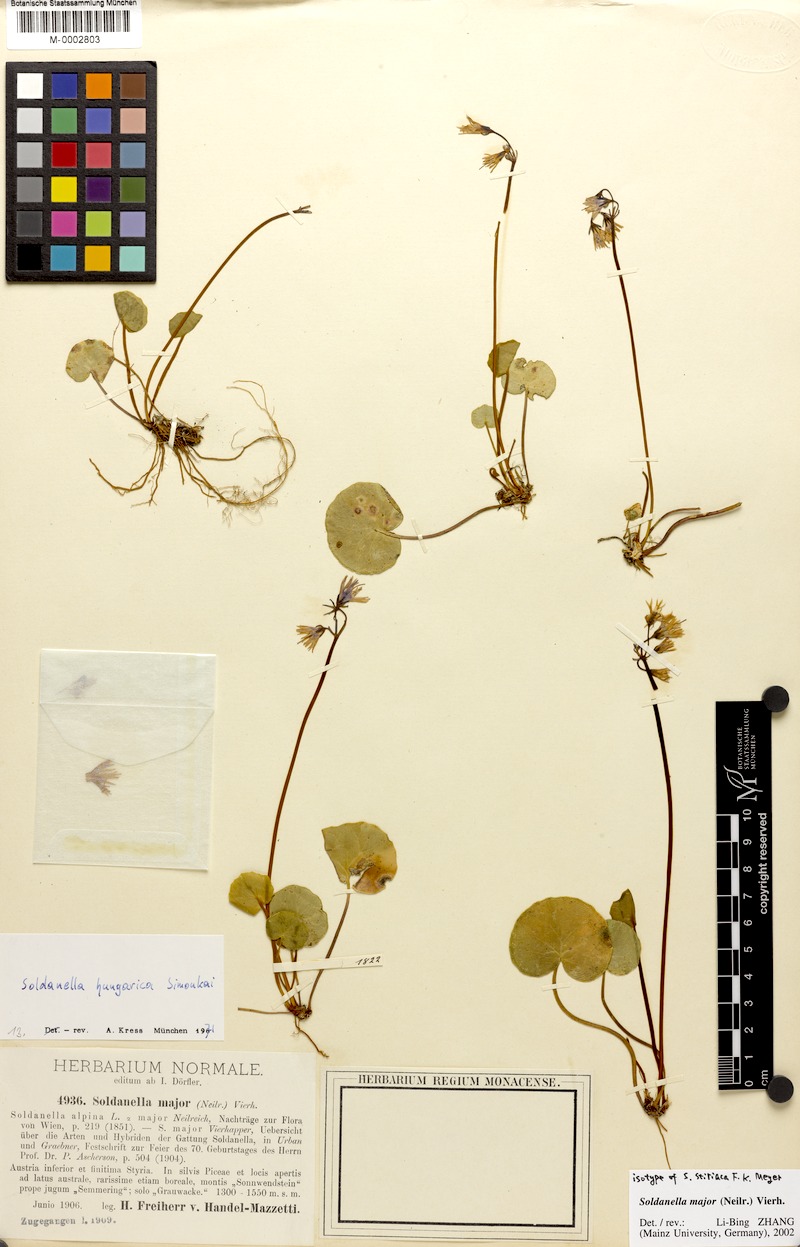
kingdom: Plantae
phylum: Tracheophyta
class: Magnoliopsida
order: Ericales
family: Primulaceae
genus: Soldanella
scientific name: Soldanella major
